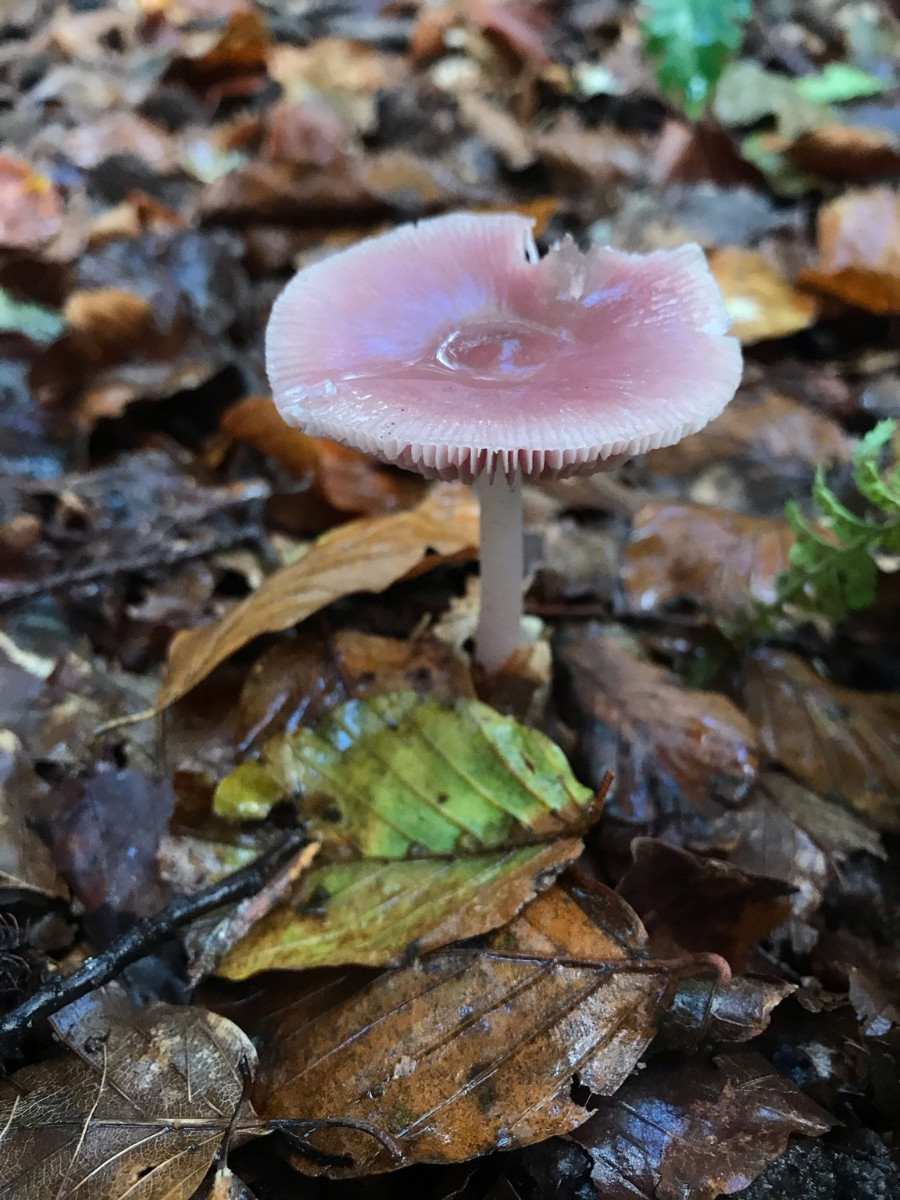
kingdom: Fungi
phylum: Basidiomycota
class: Agaricomycetes
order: Agaricales
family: Mycenaceae
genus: Mycena
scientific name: Mycena rosea
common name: rosa huesvamp
